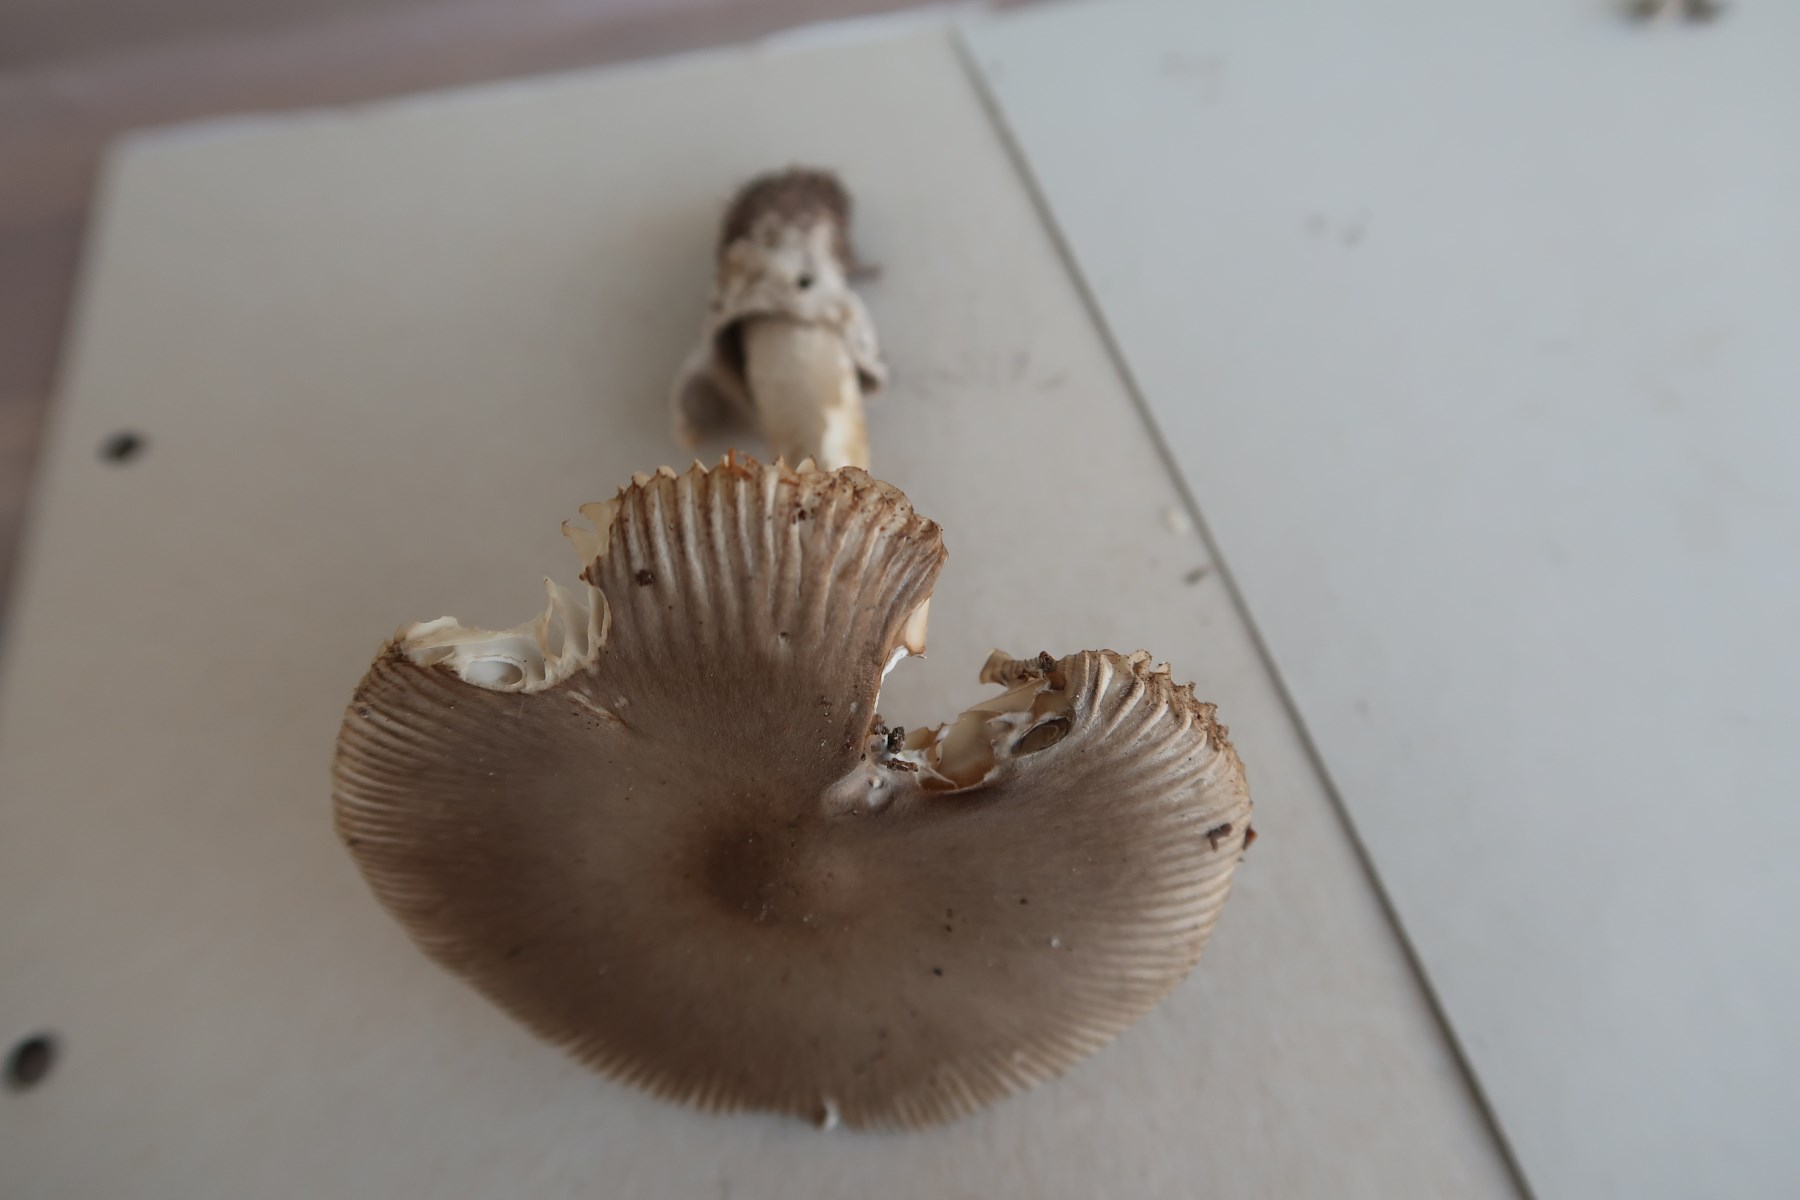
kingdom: Fungi
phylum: Basidiomycota
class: Agaricomycetes
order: Agaricales
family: Amanitaceae
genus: Amanita
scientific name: Amanita submembranacea
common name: gråspættet kam-fluesvamp
